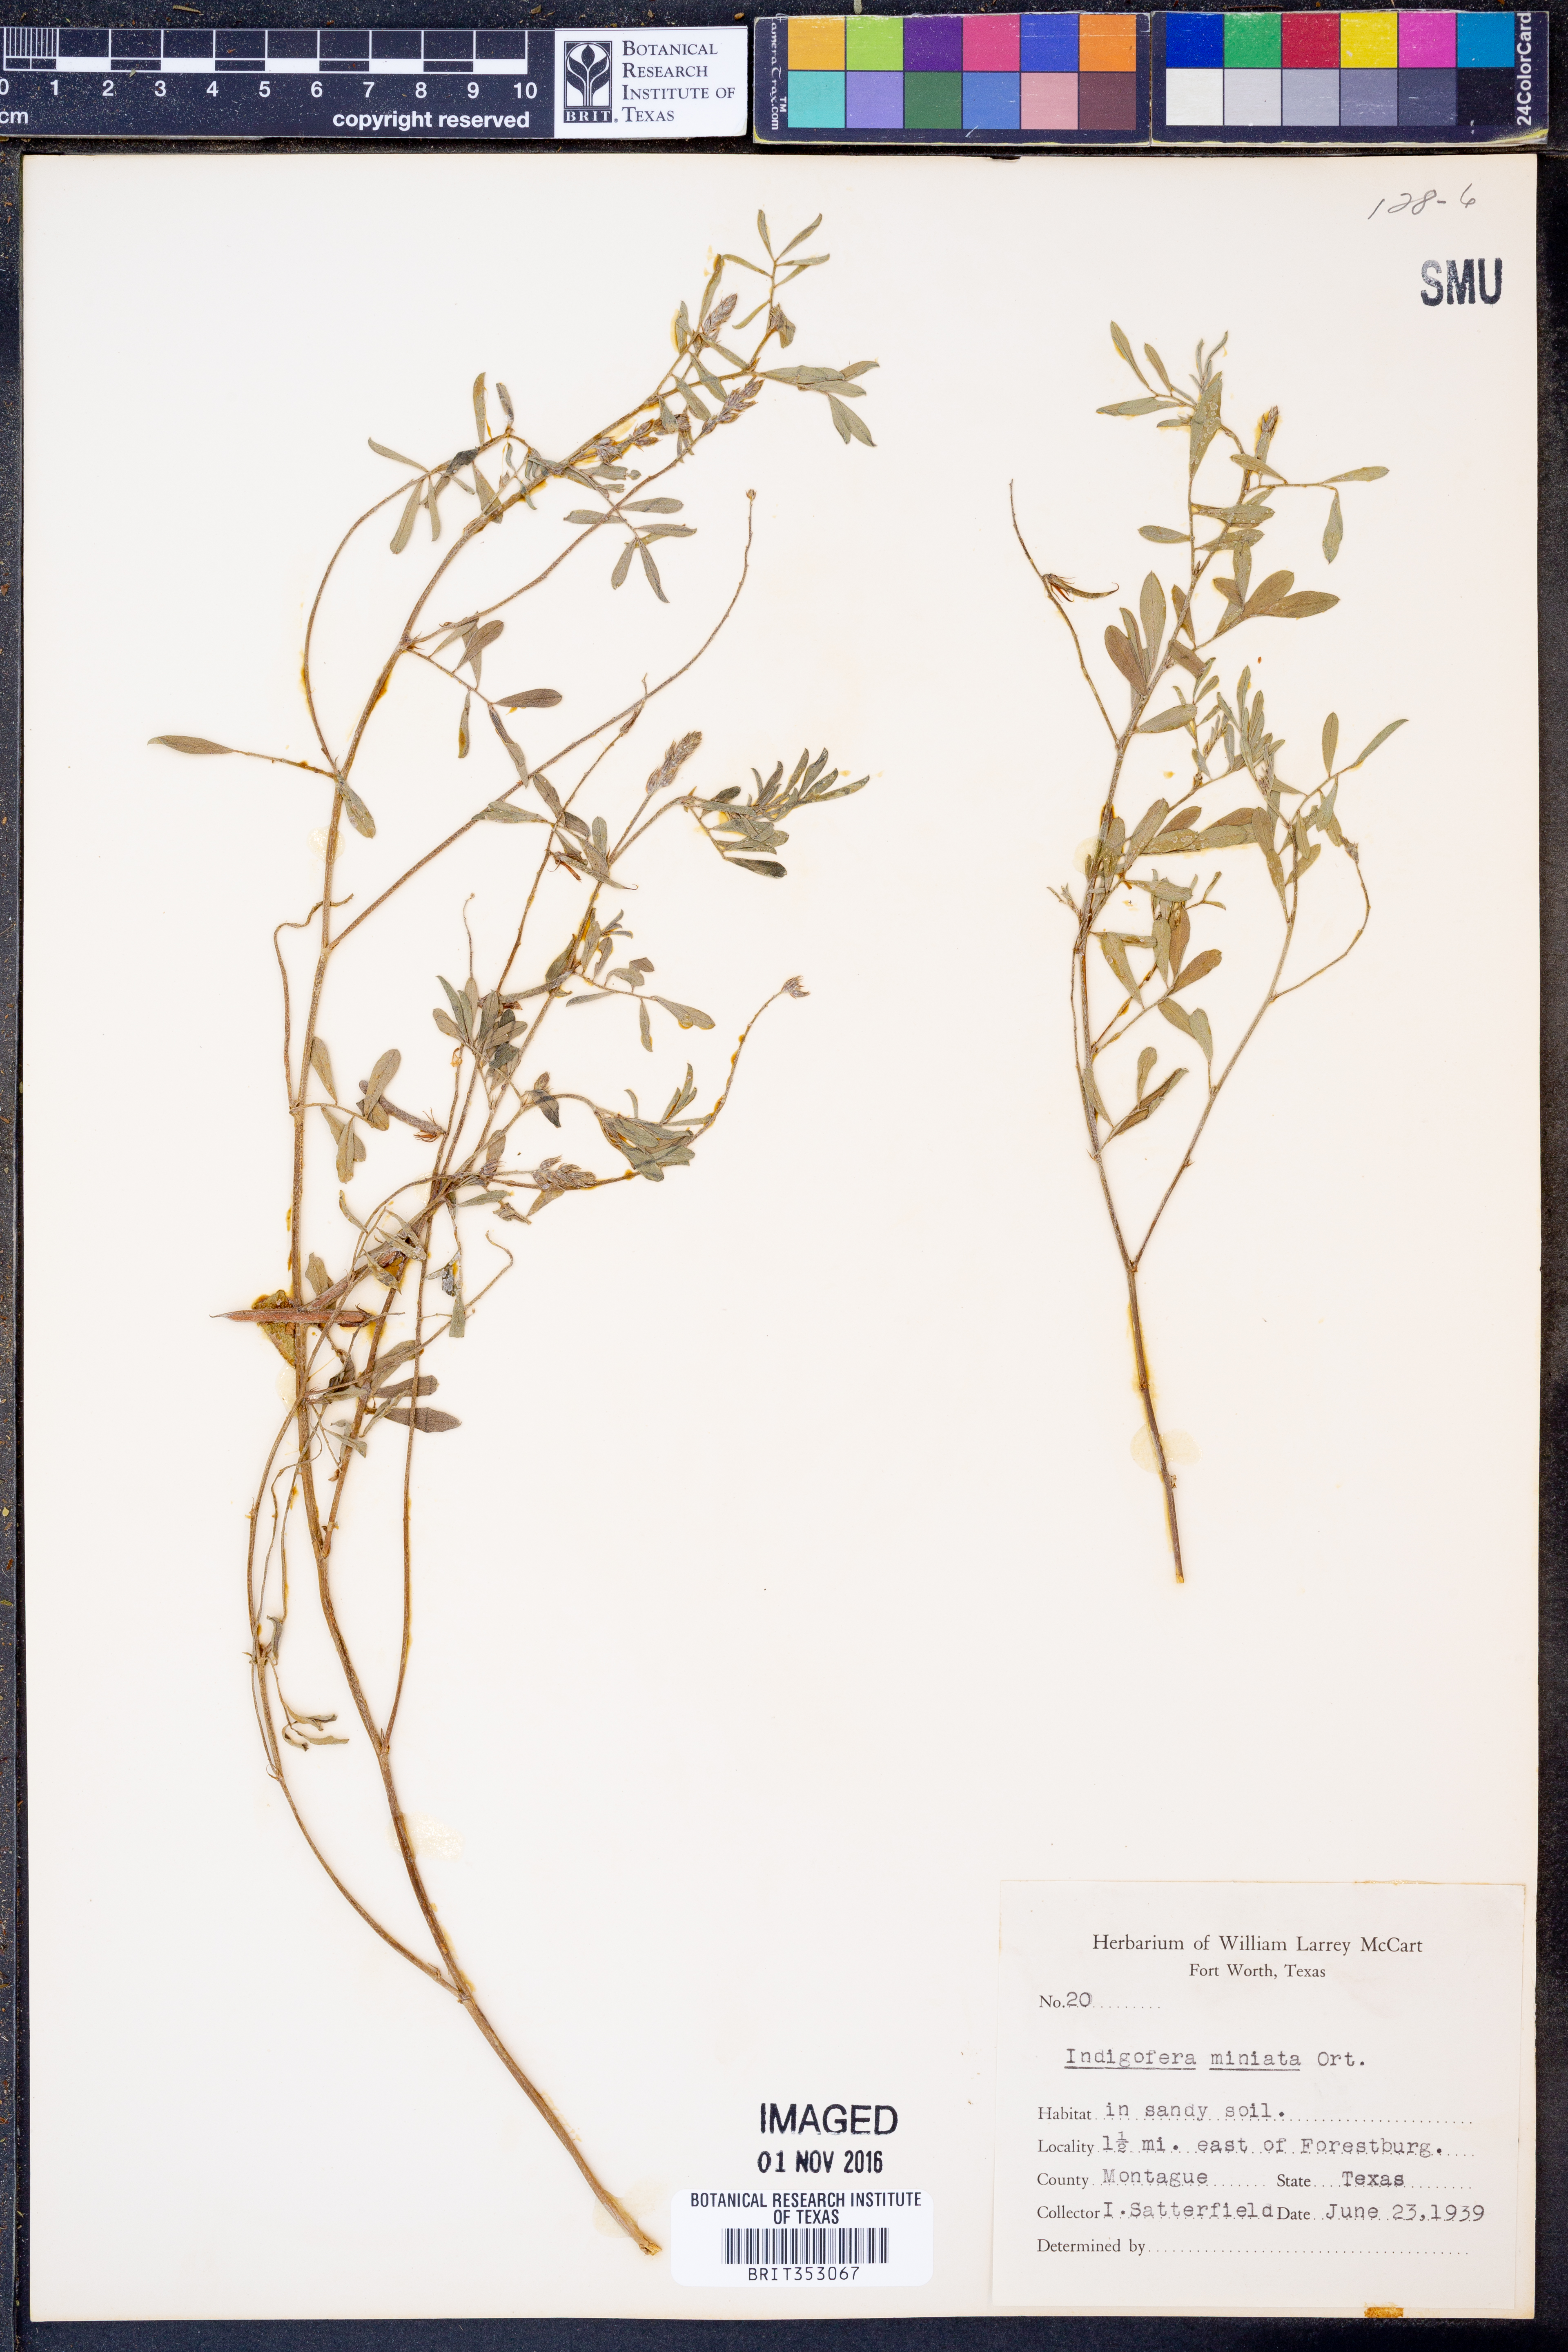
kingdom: Plantae
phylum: Tracheophyta
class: Magnoliopsida
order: Fabales
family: Fabaceae
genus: Indigofera
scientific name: Indigofera miniata
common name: Coast indigo
